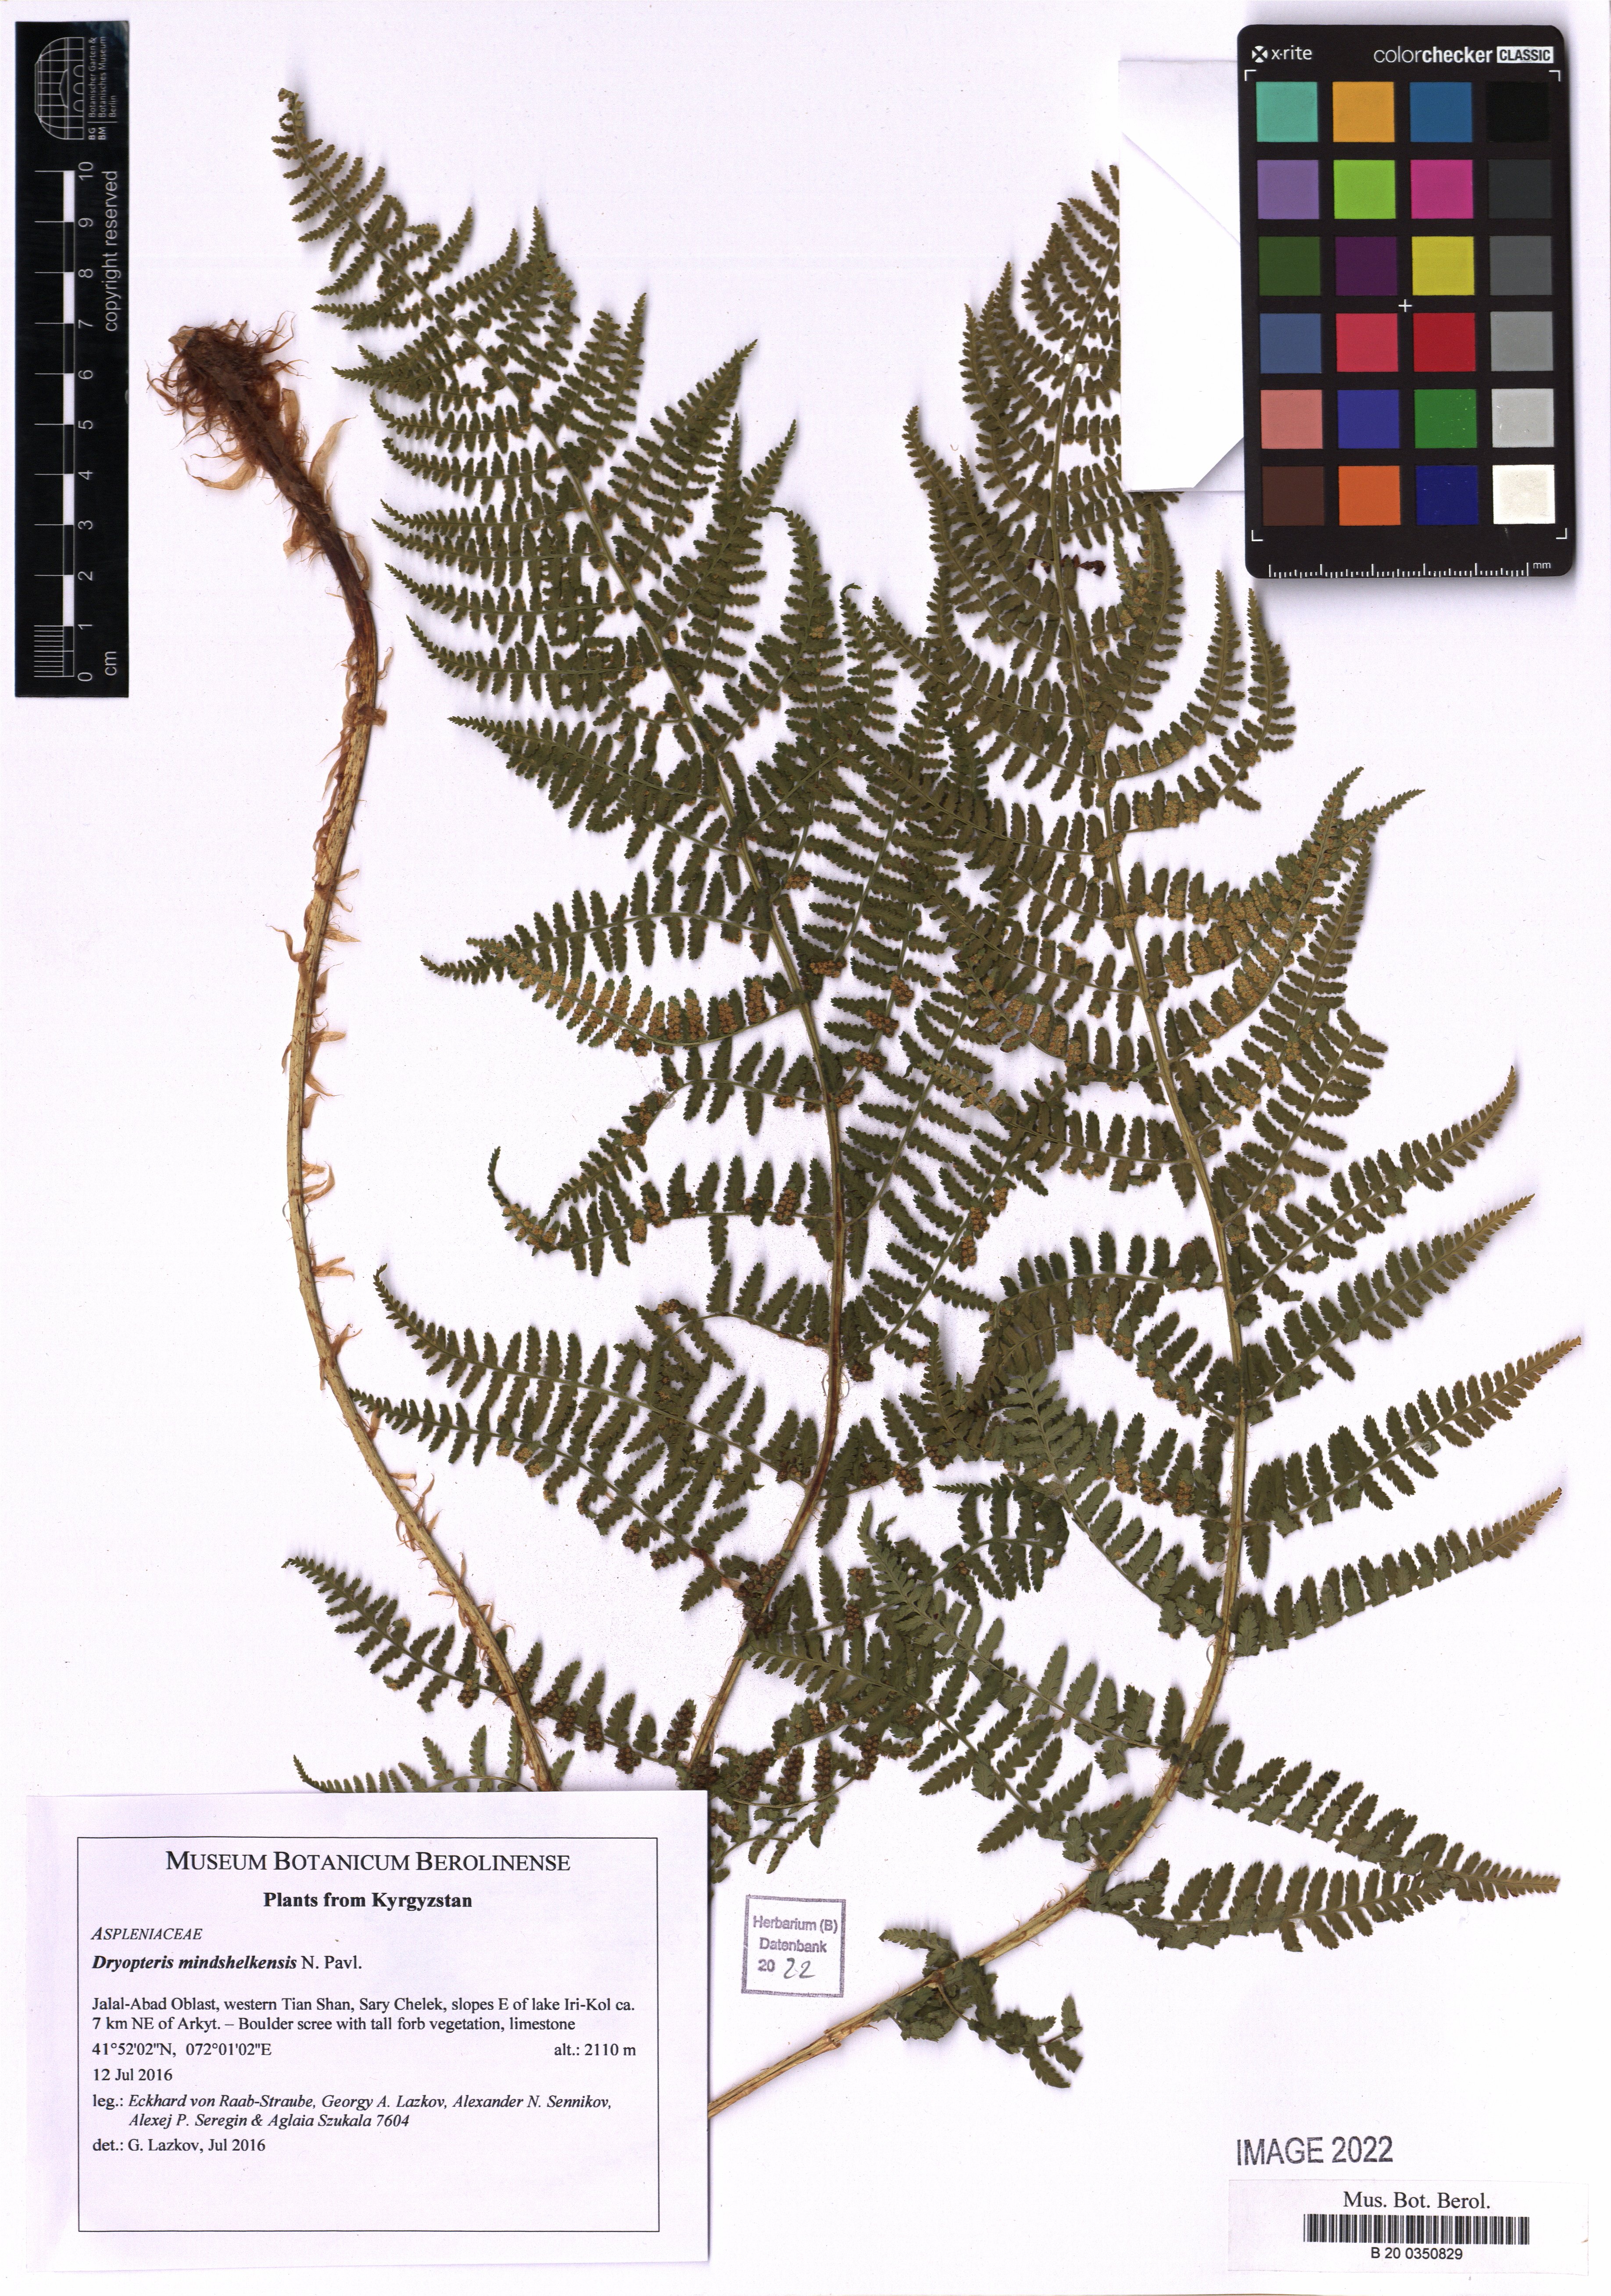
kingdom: Plantae
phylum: Tracheophyta
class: Polypodiopsida
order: Polypodiales
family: Dryopteridaceae
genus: Dryopteris
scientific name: Dryopteris mindshelkensis
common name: Limestone wood fern
